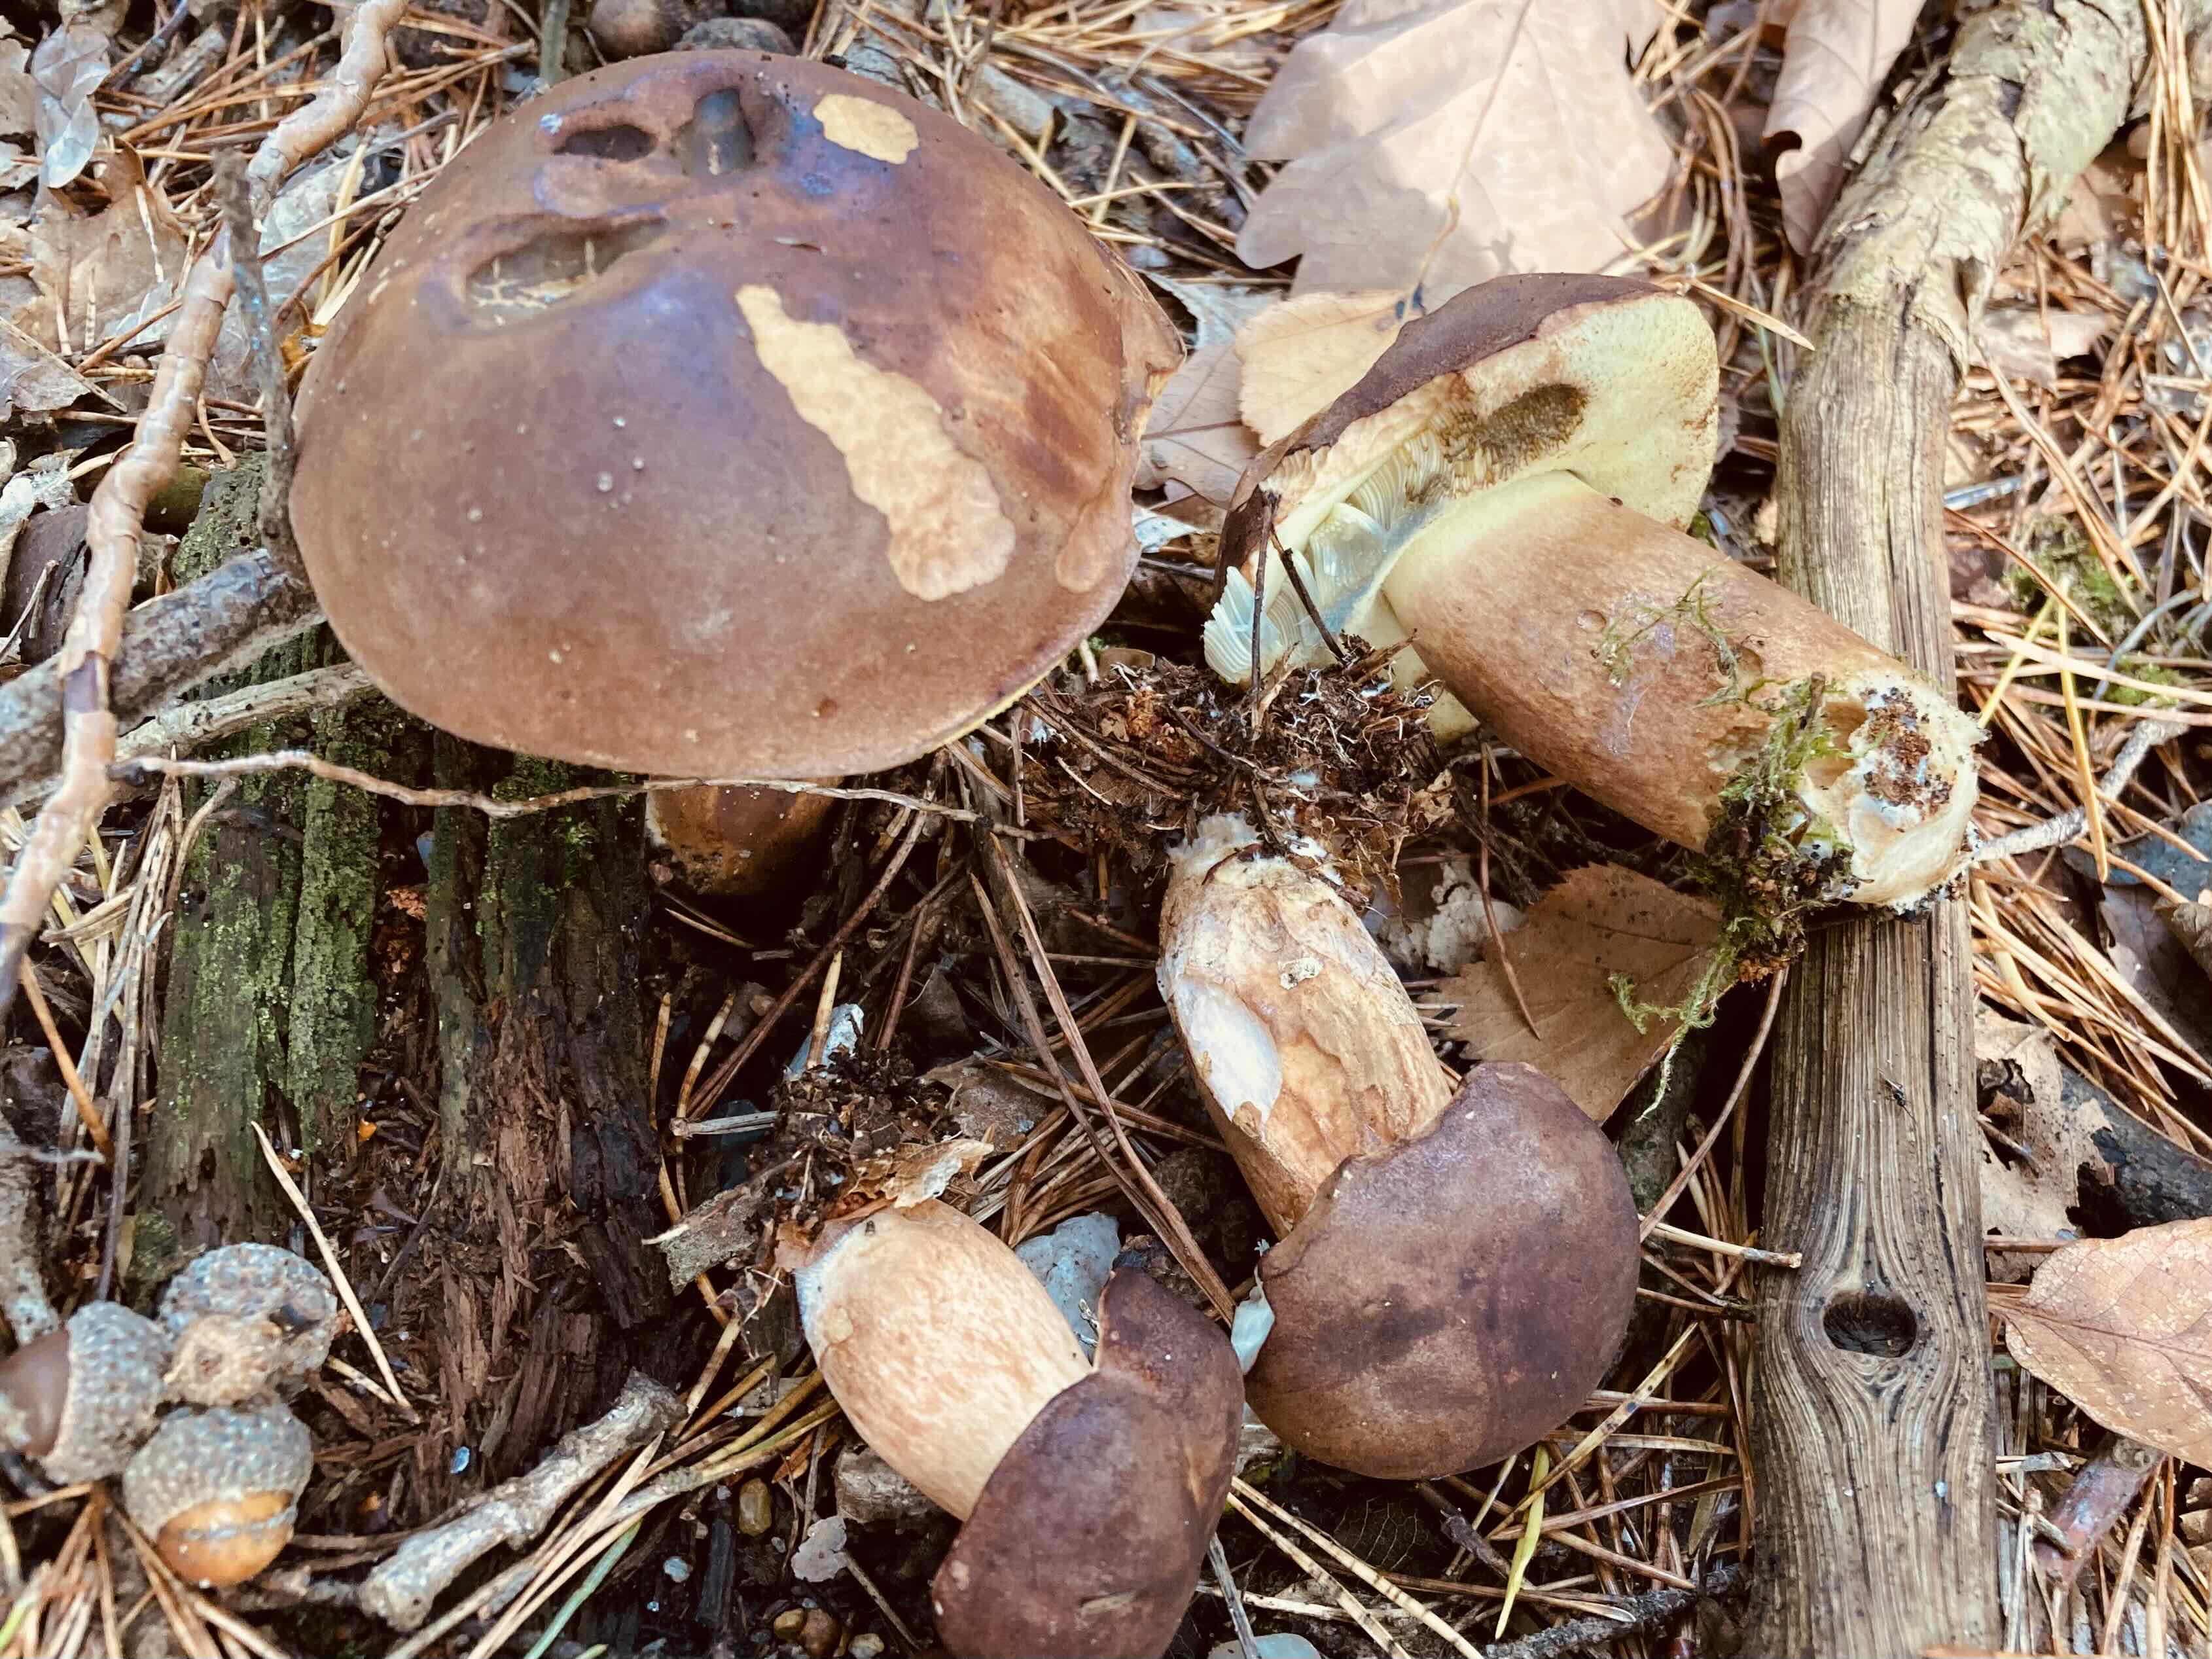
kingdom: Fungi
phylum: Basidiomycota
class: Agaricomycetes
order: Boletales
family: Boletaceae
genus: Imleria
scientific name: Imleria badia
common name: brunstokket rørhat
